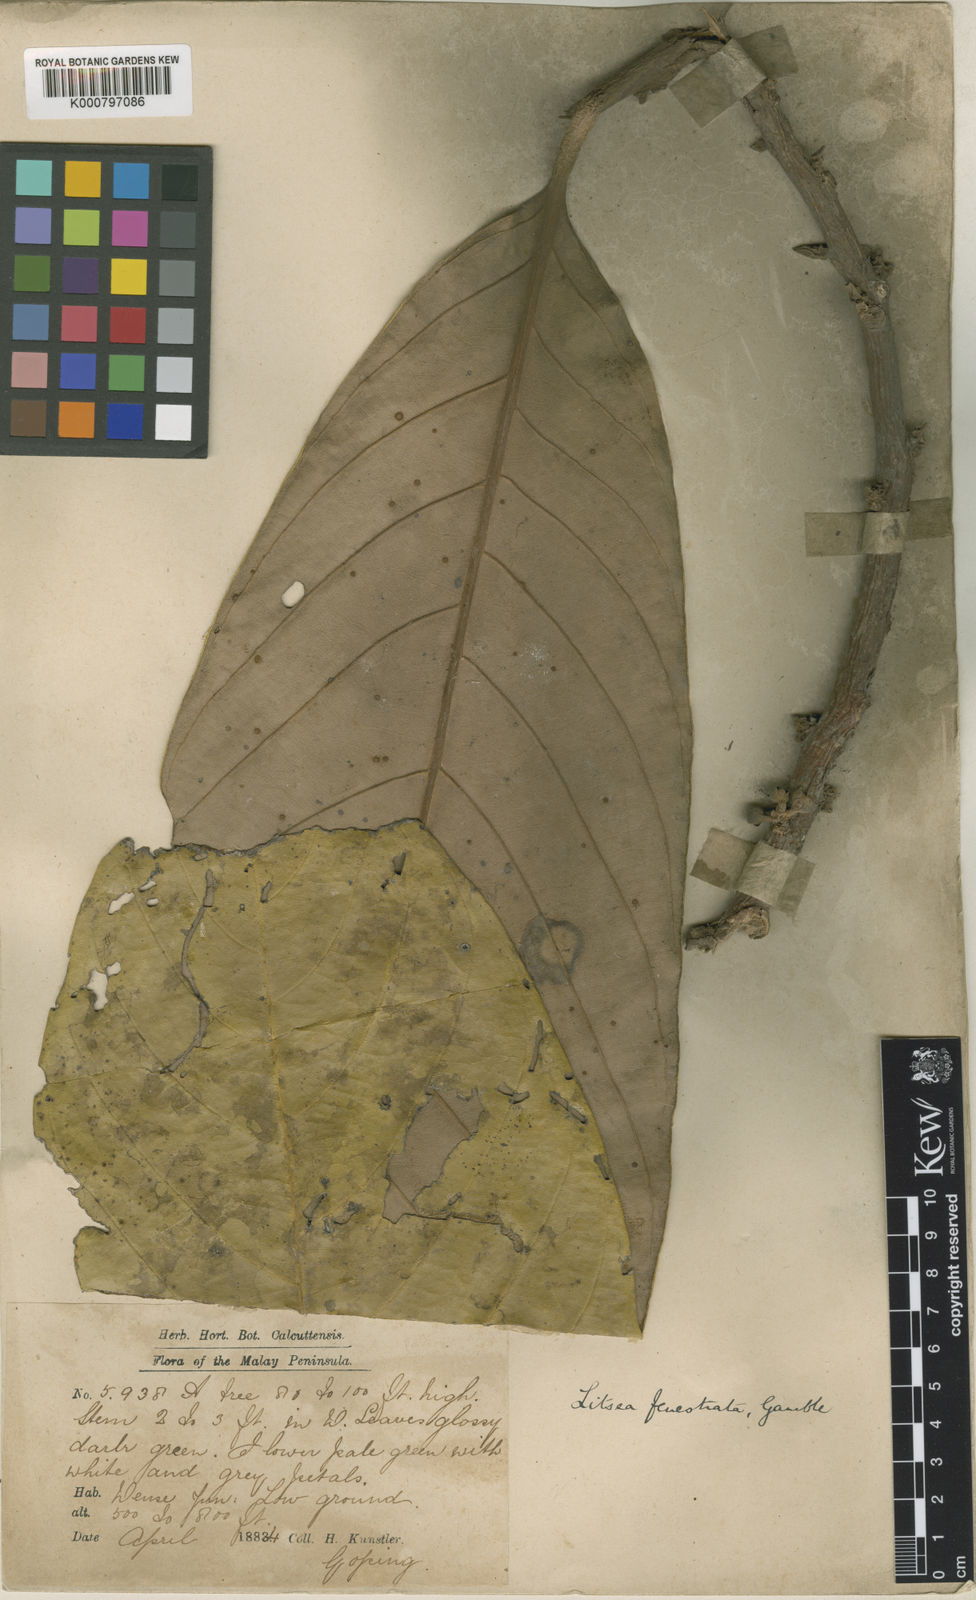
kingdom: Plantae
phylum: Tracheophyta
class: Magnoliopsida
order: Laurales
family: Lauraceae
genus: Litsea
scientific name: Litsea fenestrata
